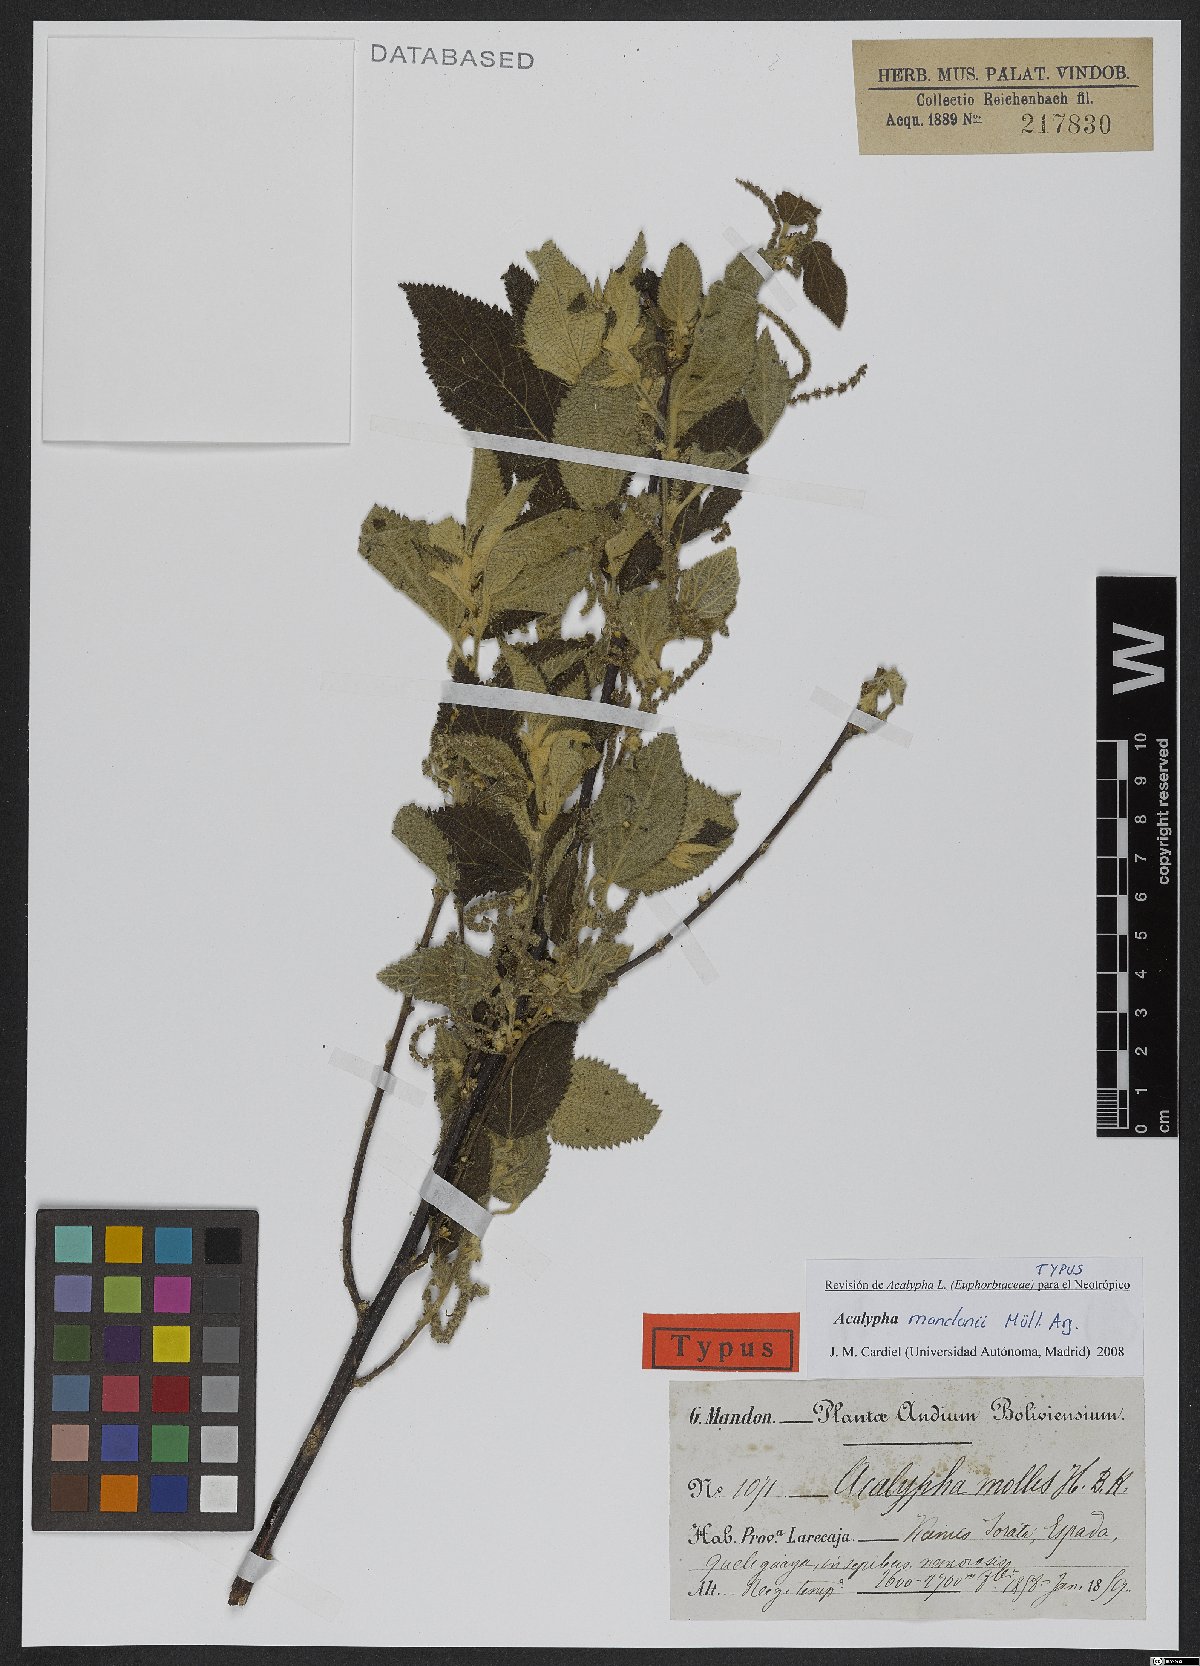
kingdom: Plantae
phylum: Tracheophyta
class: Magnoliopsida
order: Malpighiales
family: Euphorbiaceae
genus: Acalypha
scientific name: Acalypha reflexa
